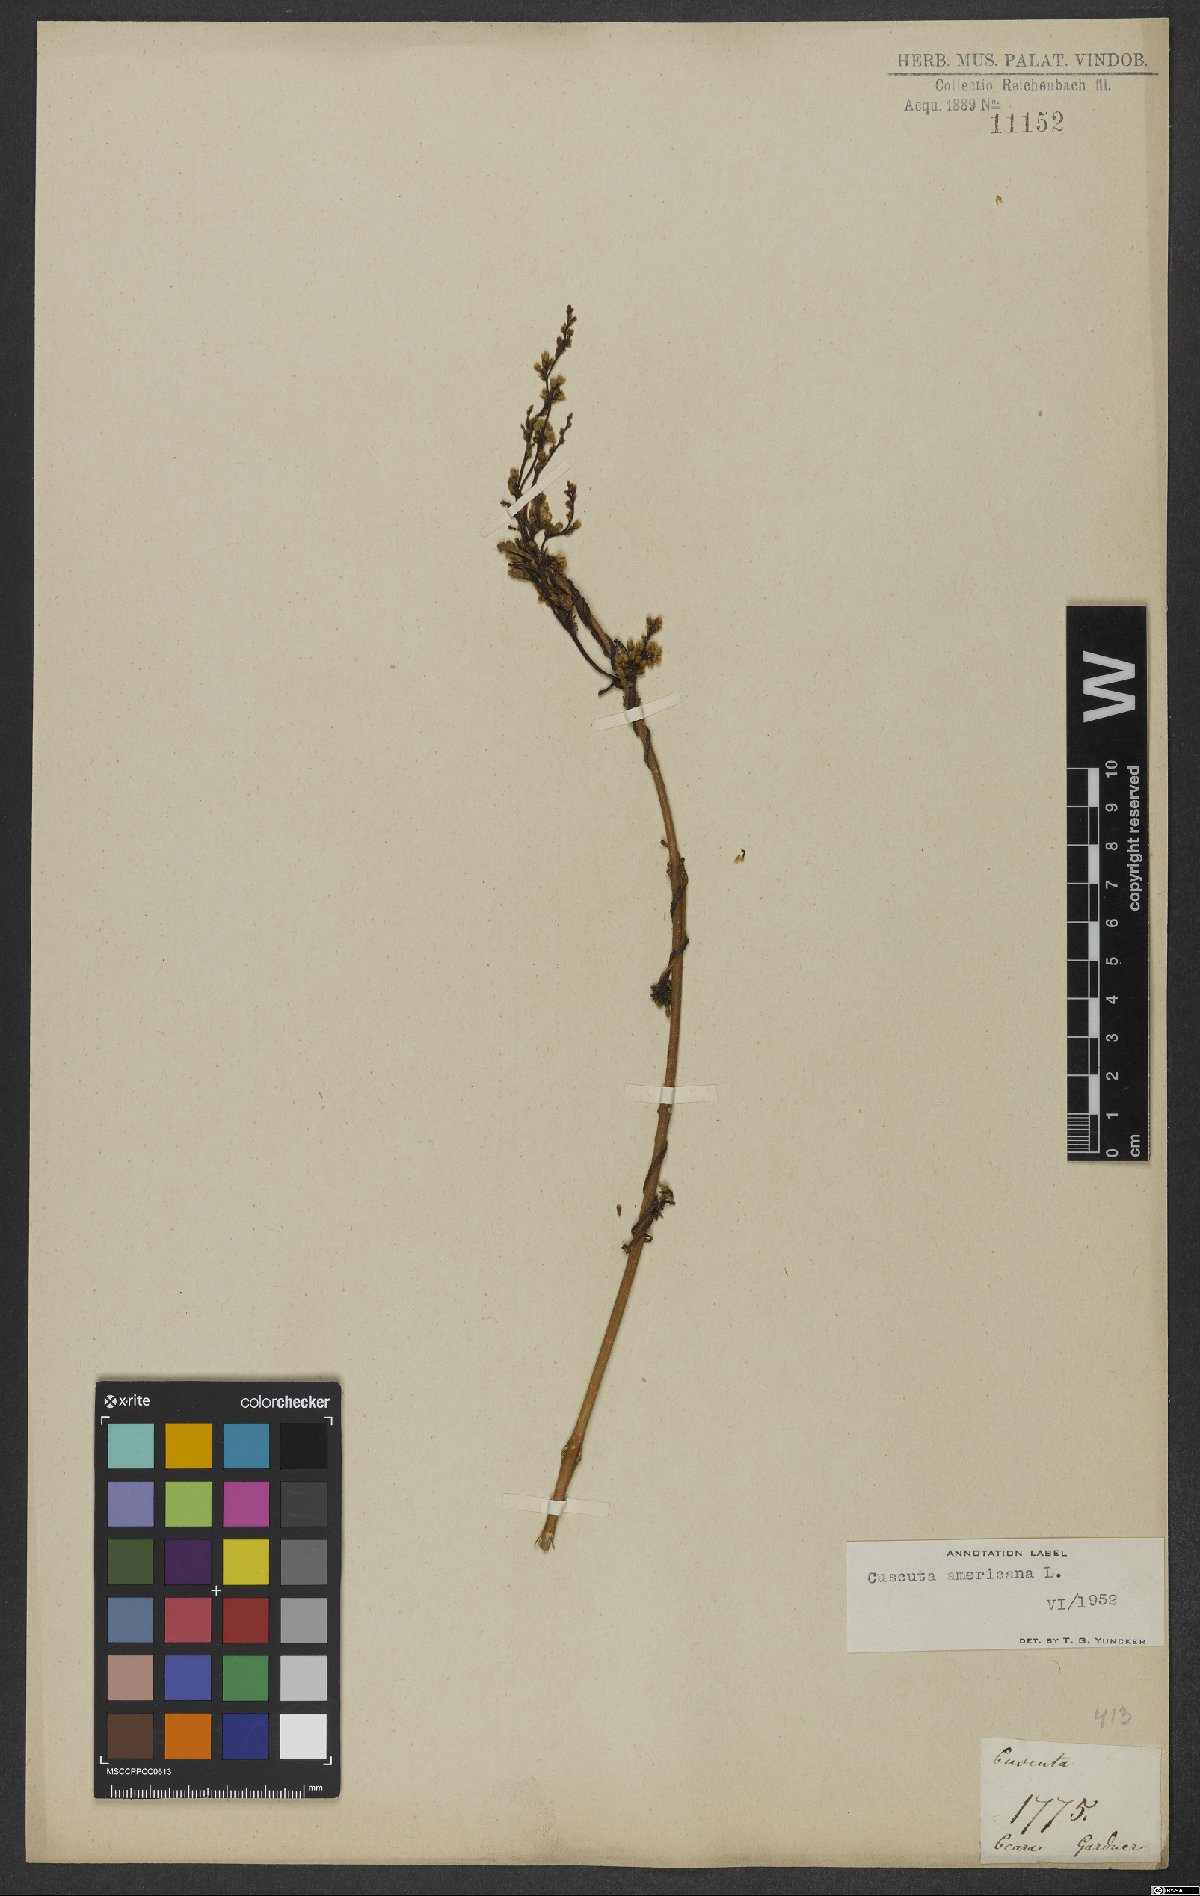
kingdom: Plantae
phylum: Tracheophyta
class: Magnoliopsida
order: Solanales
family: Convolvulaceae
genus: Cuscuta
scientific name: Cuscuta corymbosa
